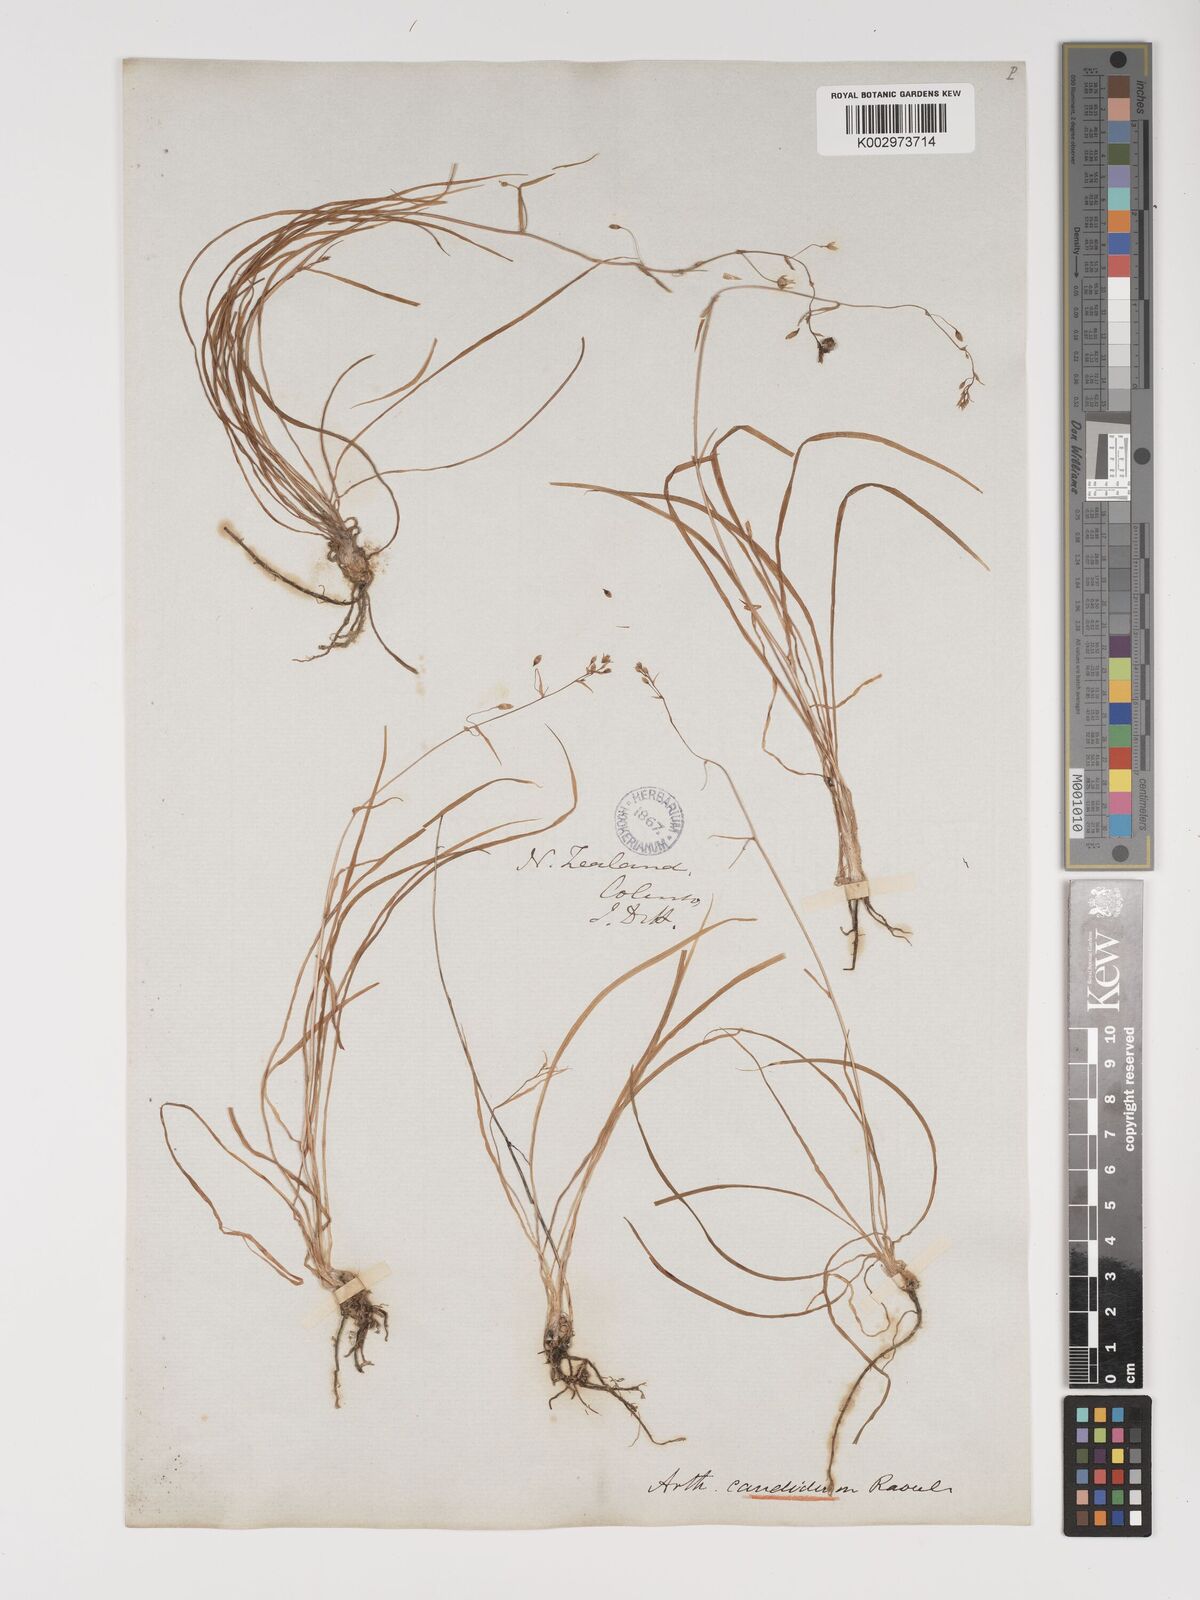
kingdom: Plantae
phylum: Tracheophyta
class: Liliopsida
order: Asparagales
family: Asparagaceae
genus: Arthropodium
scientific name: Arthropodium candidum
